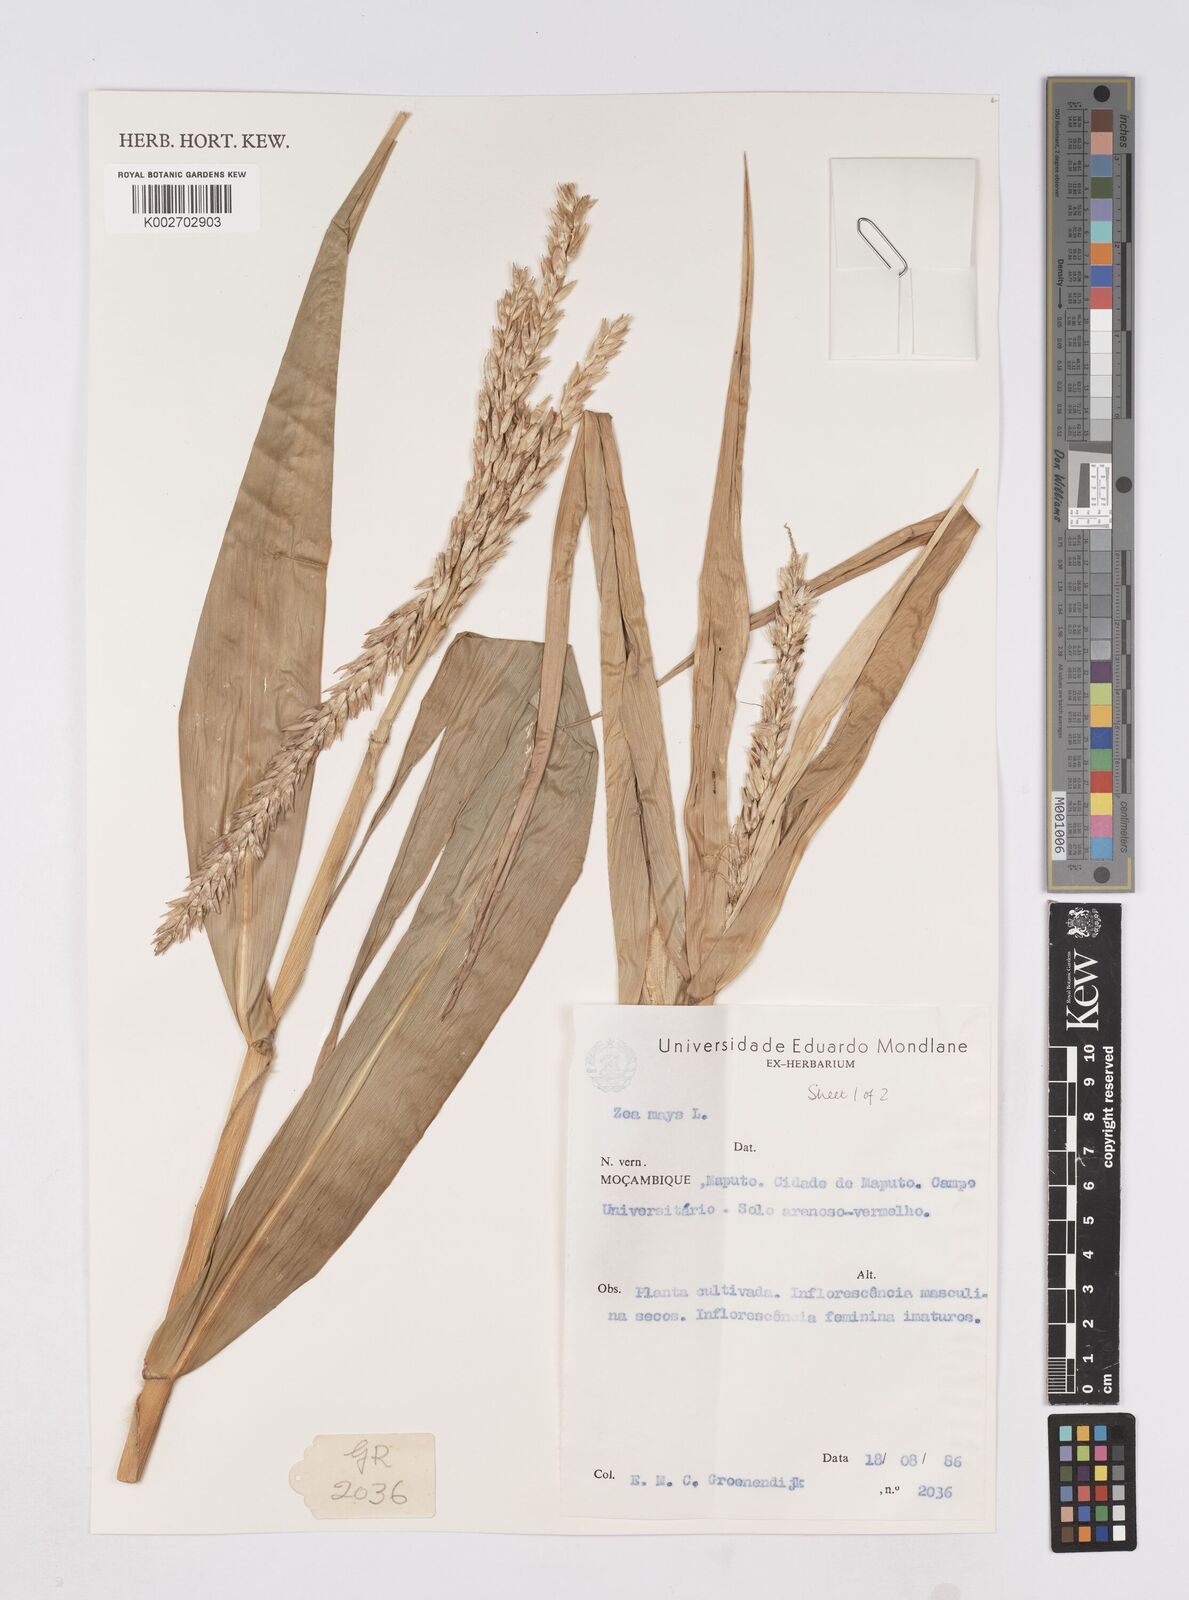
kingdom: Plantae
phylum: Tracheophyta
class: Liliopsida
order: Poales
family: Poaceae
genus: Zea
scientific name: Zea mays
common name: Maize
